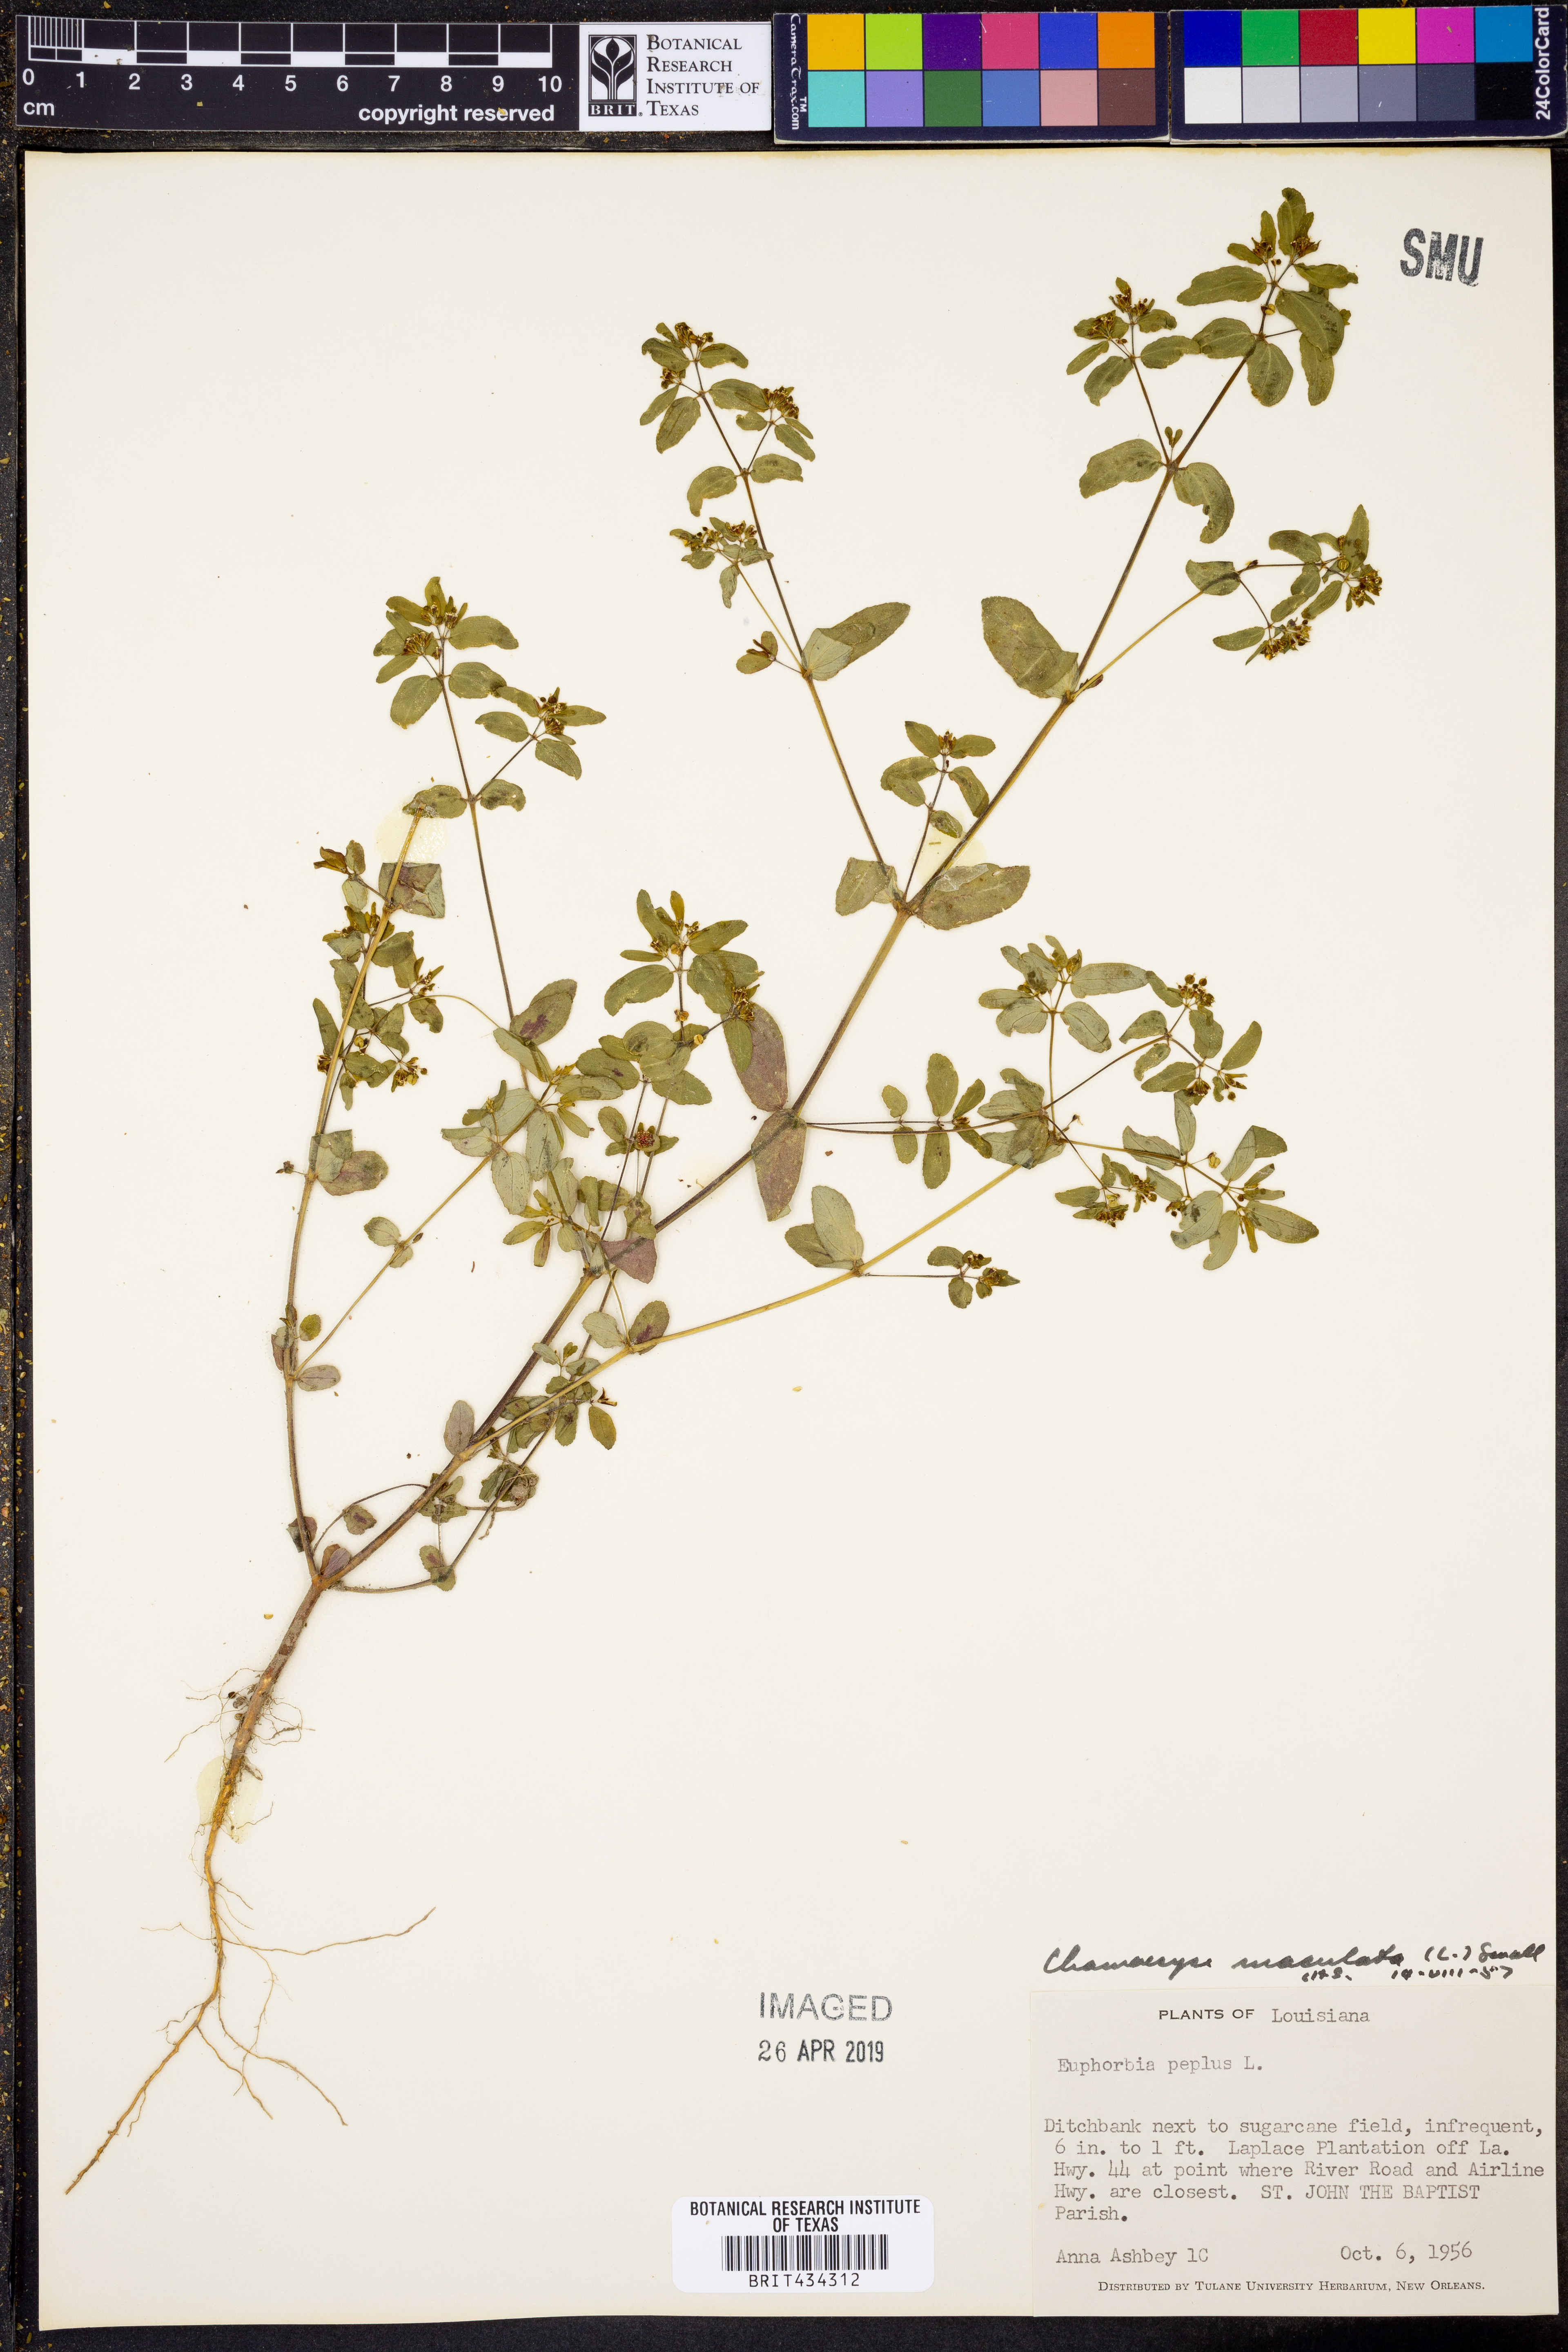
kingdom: Plantae
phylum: Tracheophyta
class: Magnoliopsida
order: Malpighiales
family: Euphorbiaceae
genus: Euphorbia
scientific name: Euphorbia maculata
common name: Spotted spurge
